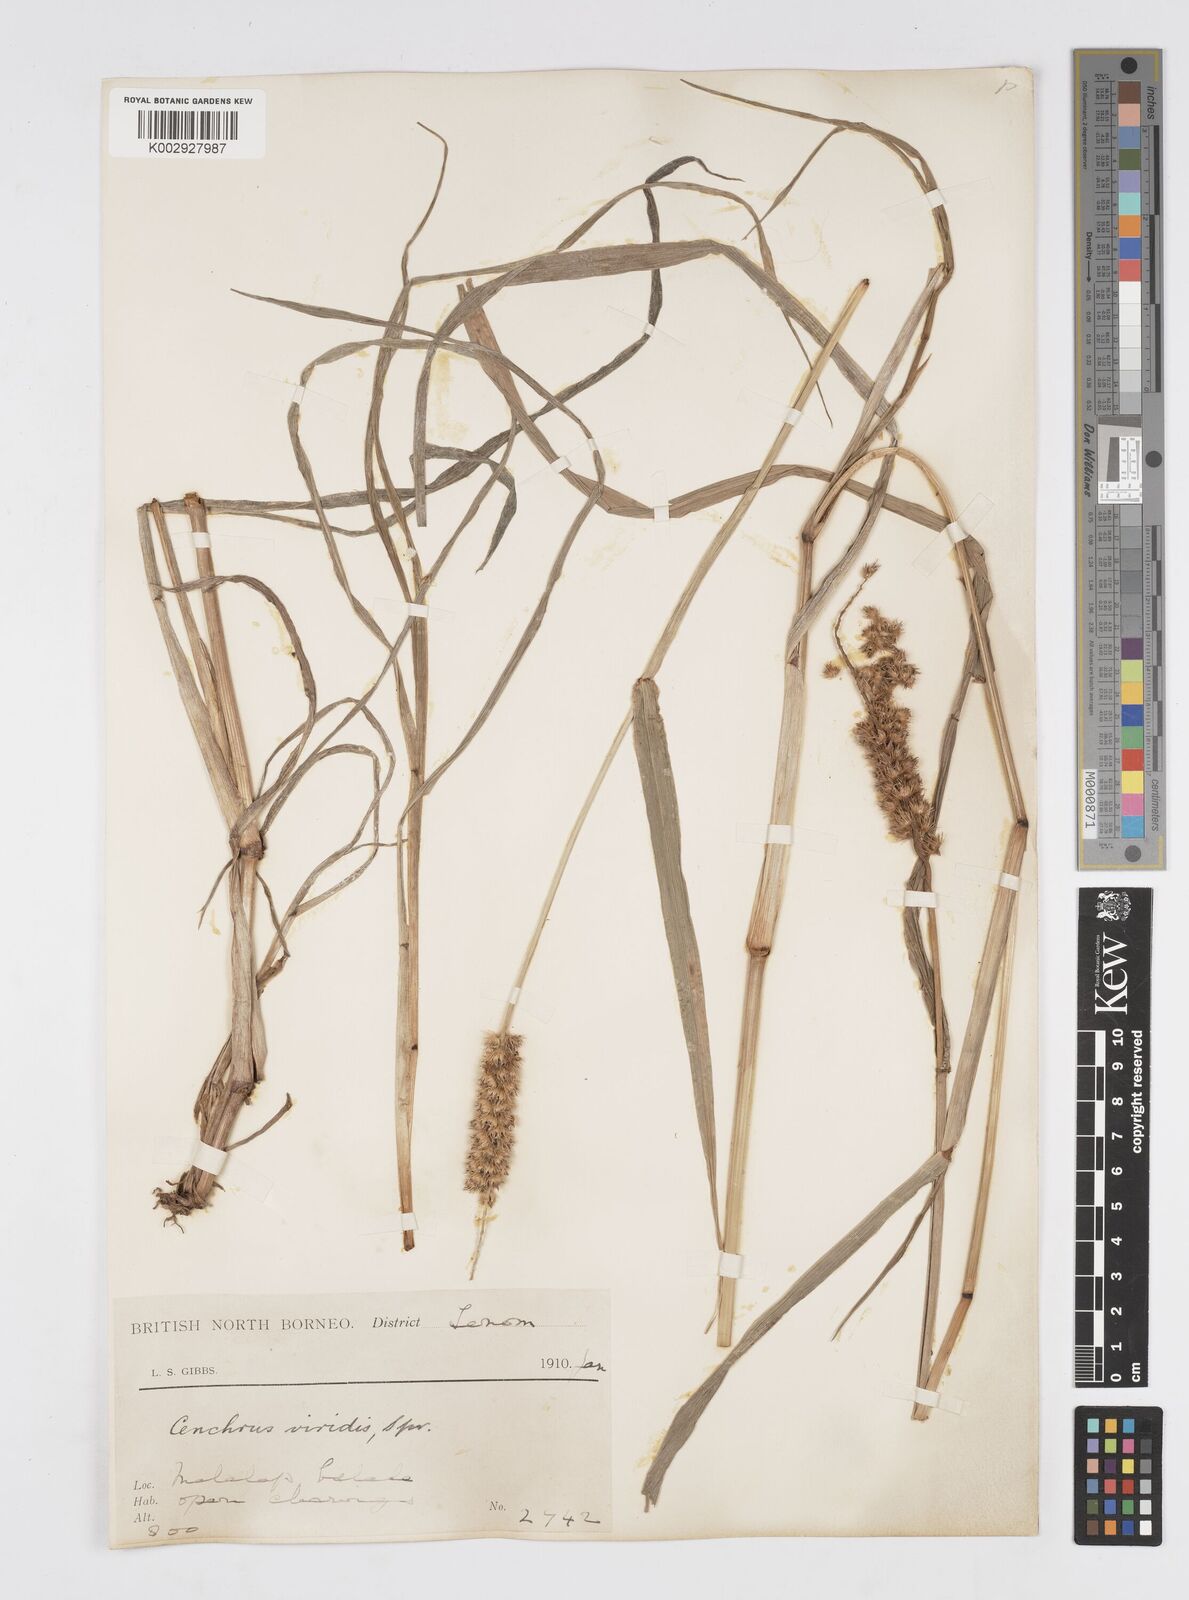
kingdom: Plantae
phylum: Tracheophyta
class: Liliopsida
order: Poales
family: Poaceae
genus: Cenchrus
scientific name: Cenchrus brownii
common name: Slim-bristle sandbur
